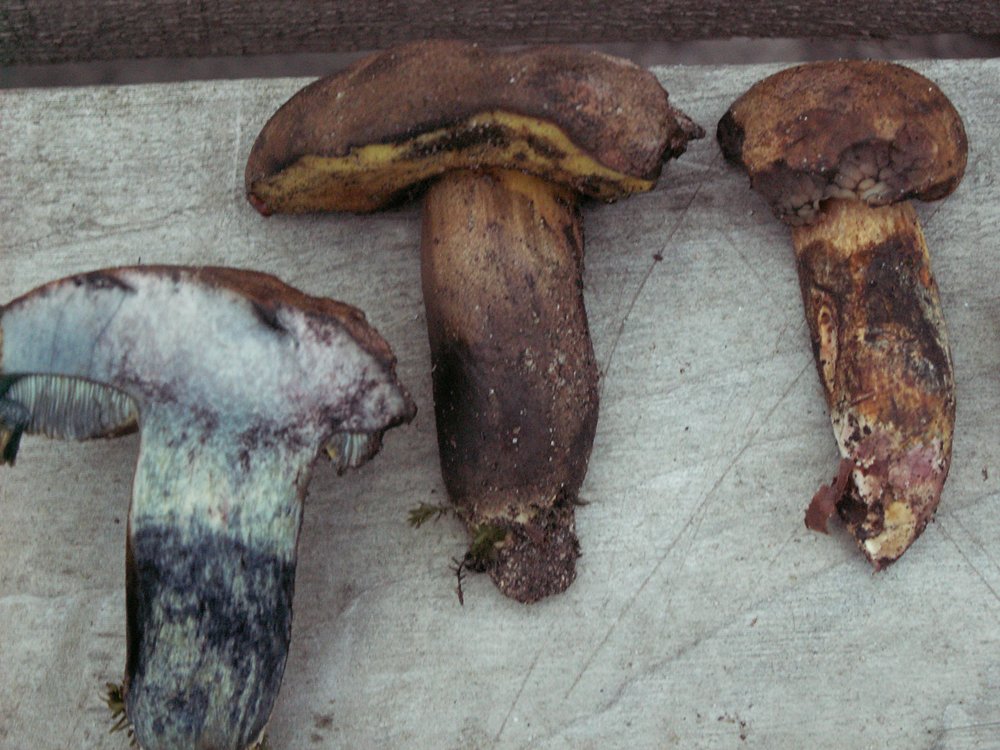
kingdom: Fungi
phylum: Basidiomycota
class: Agaricomycetes
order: Boletales
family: Boletaceae
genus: Cyanoboletus
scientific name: Cyanoboletus pulverulentus
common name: sortblånende rørhat
